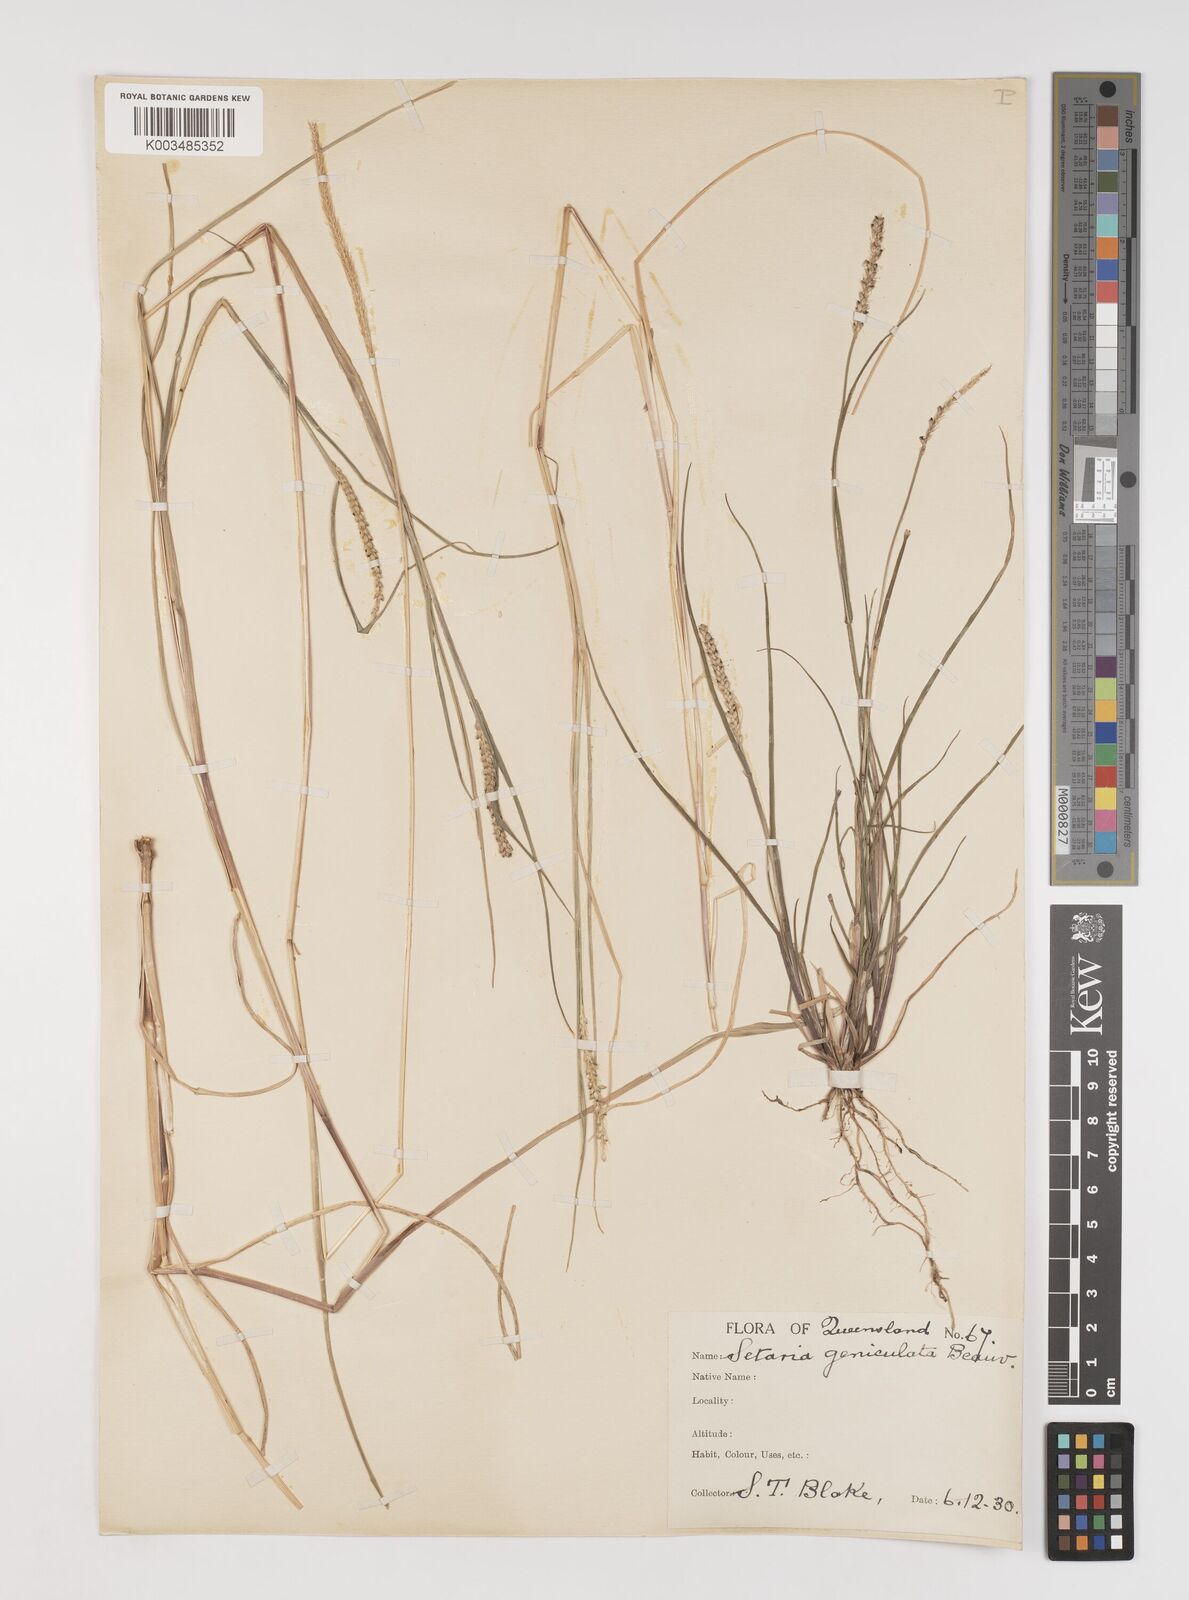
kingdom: Plantae
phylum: Tracheophyta
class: Liliopsida
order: Poales
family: Poaceae
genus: Setaria
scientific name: Setaria parviflora
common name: Knotroot bristle-grass
